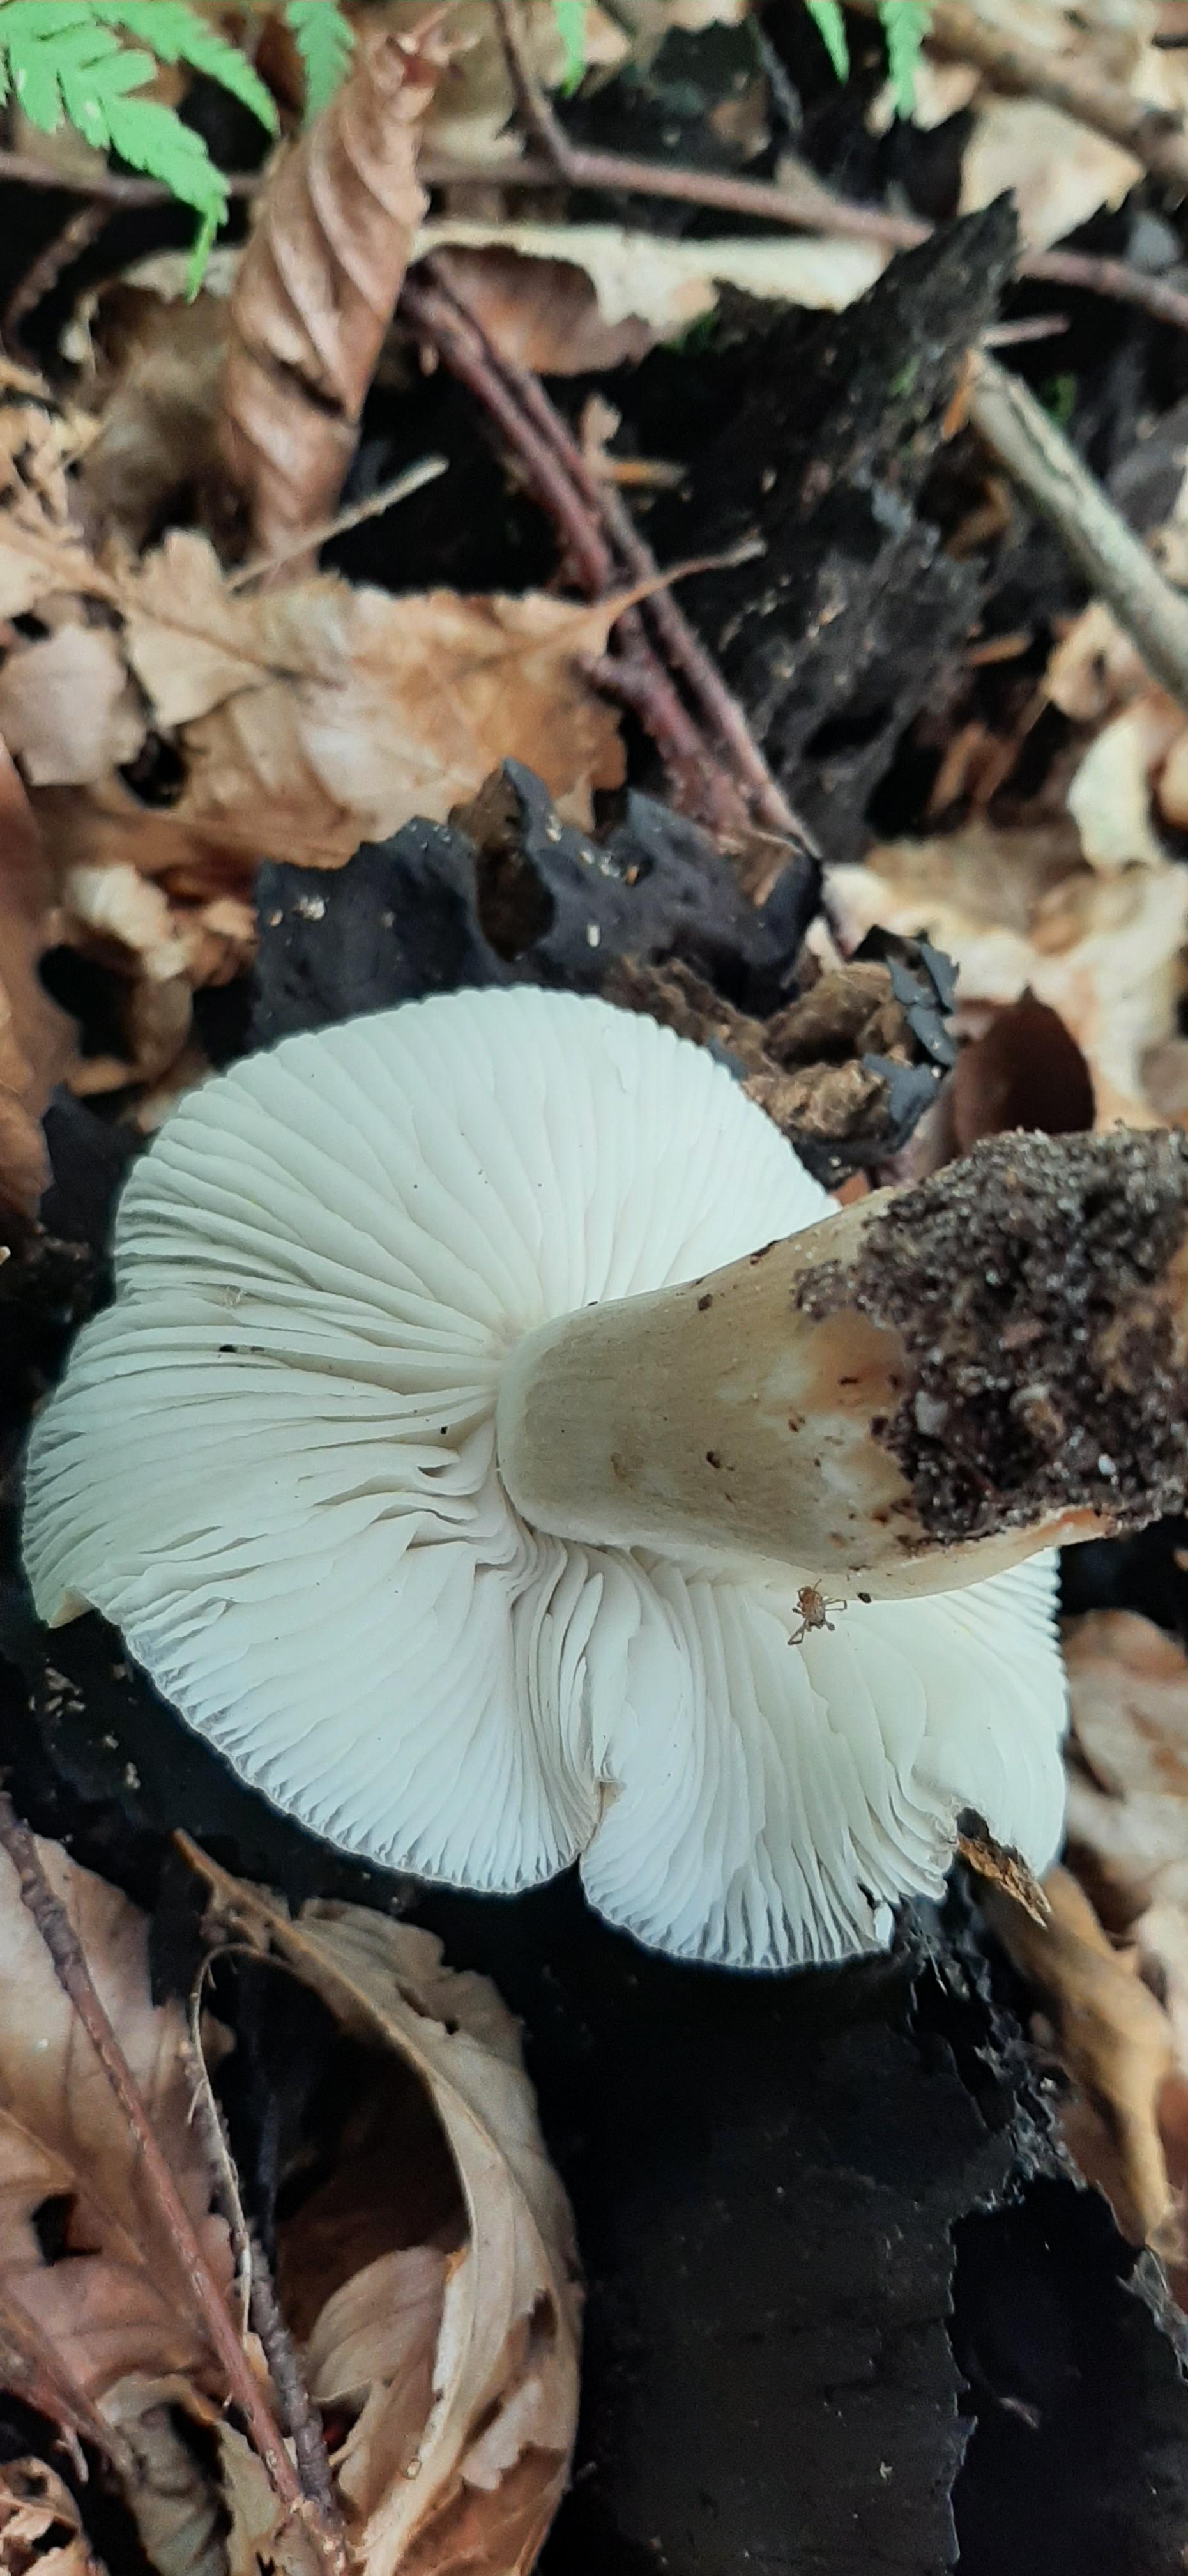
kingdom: Fungi
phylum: Basidiomycota
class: Agaricomycetes
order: Agaricales
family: Physalacriaceae
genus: Hymenopellis
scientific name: Hymenopellis radicata
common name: almindelig pælerodshat
